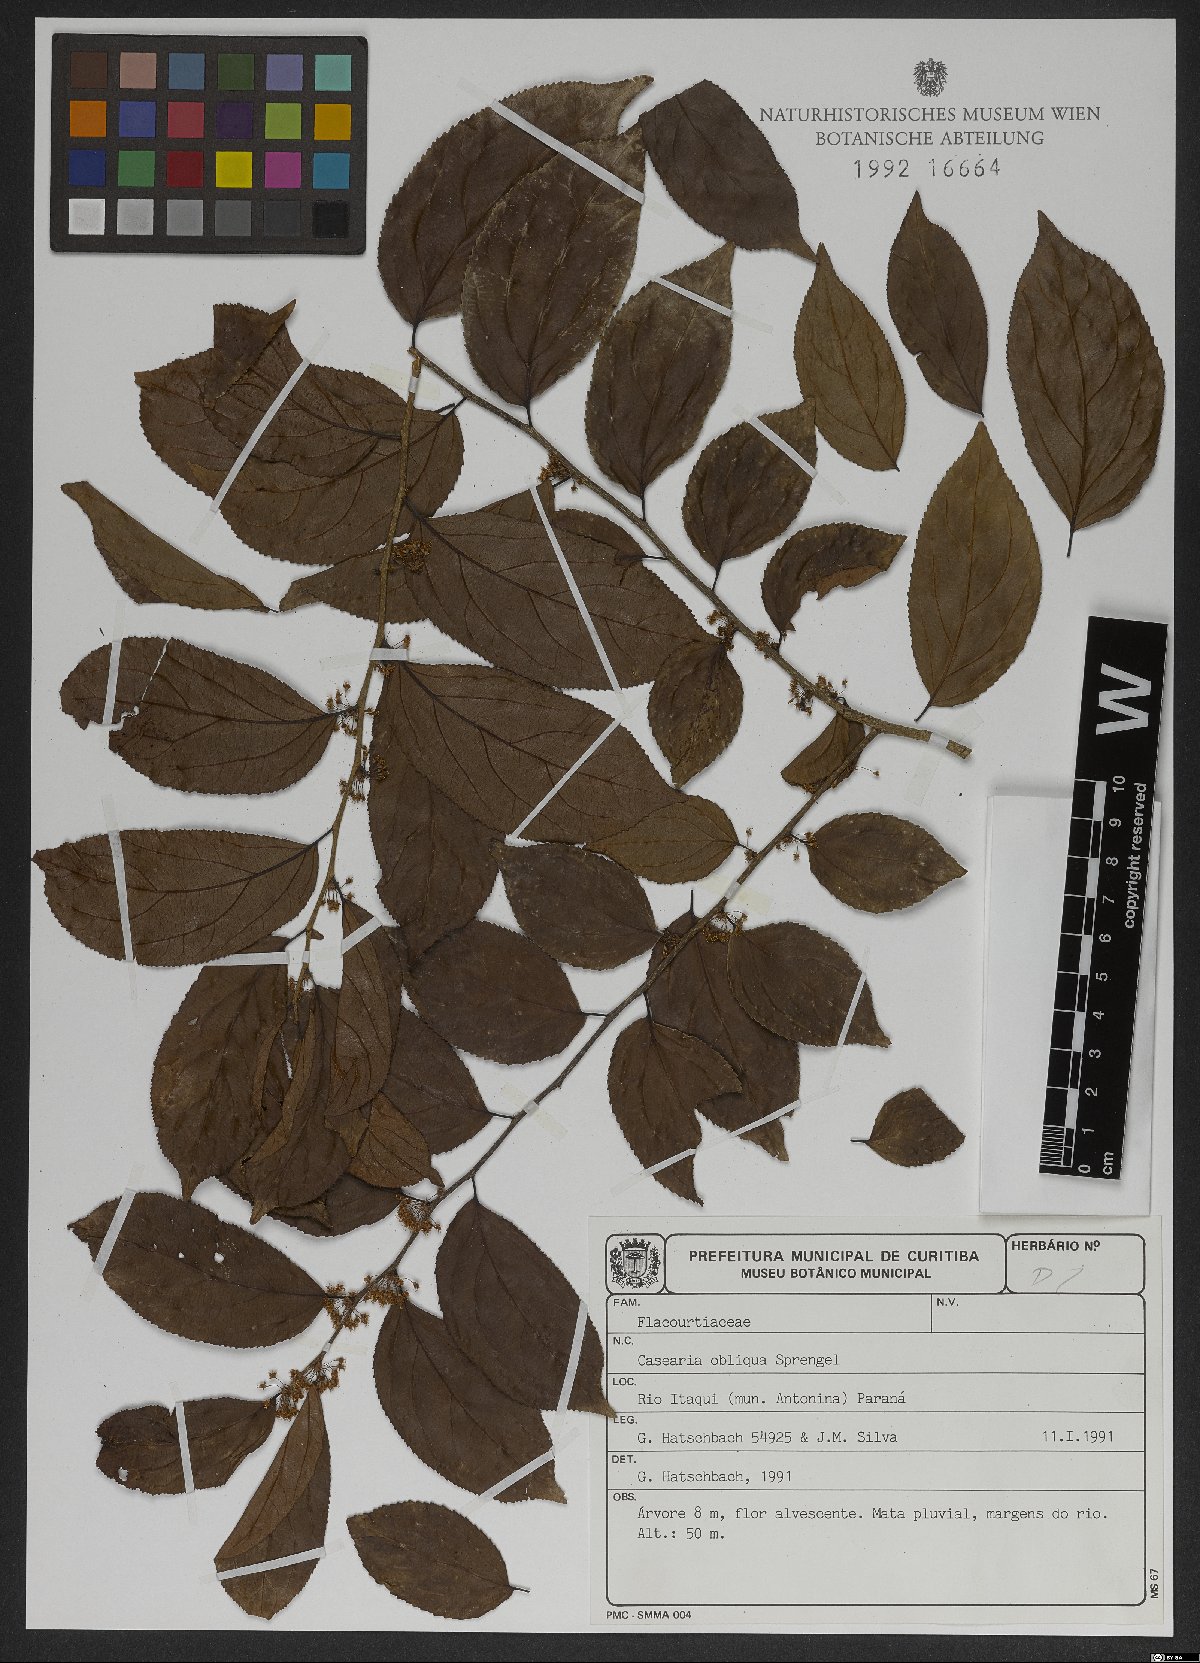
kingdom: Plantae
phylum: Tracheophyta
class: Magnoliopsida
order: Malpighiales
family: Salicaceae
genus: Casearia
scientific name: Casearia obliqua
